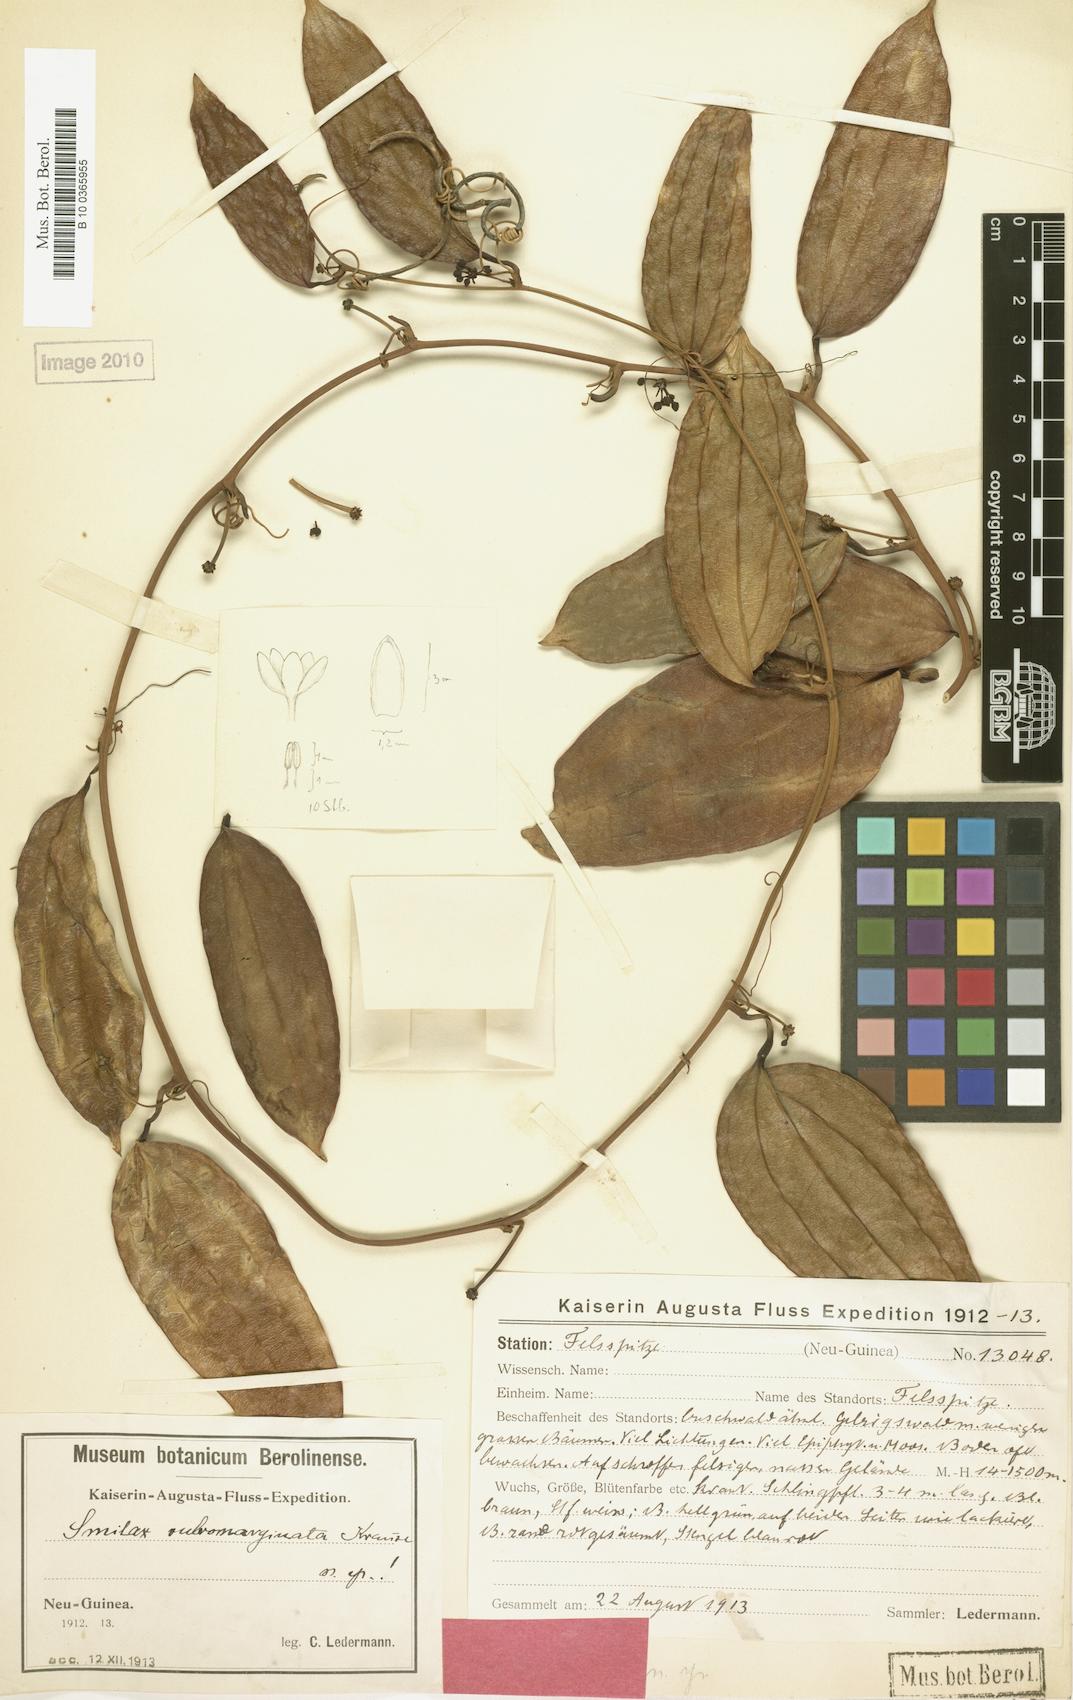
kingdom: Plantae
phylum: Tracheophyta
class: Liliopsida
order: Liliales
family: Smilacaceae
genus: Smilax
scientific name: Smilax rubromarginata
